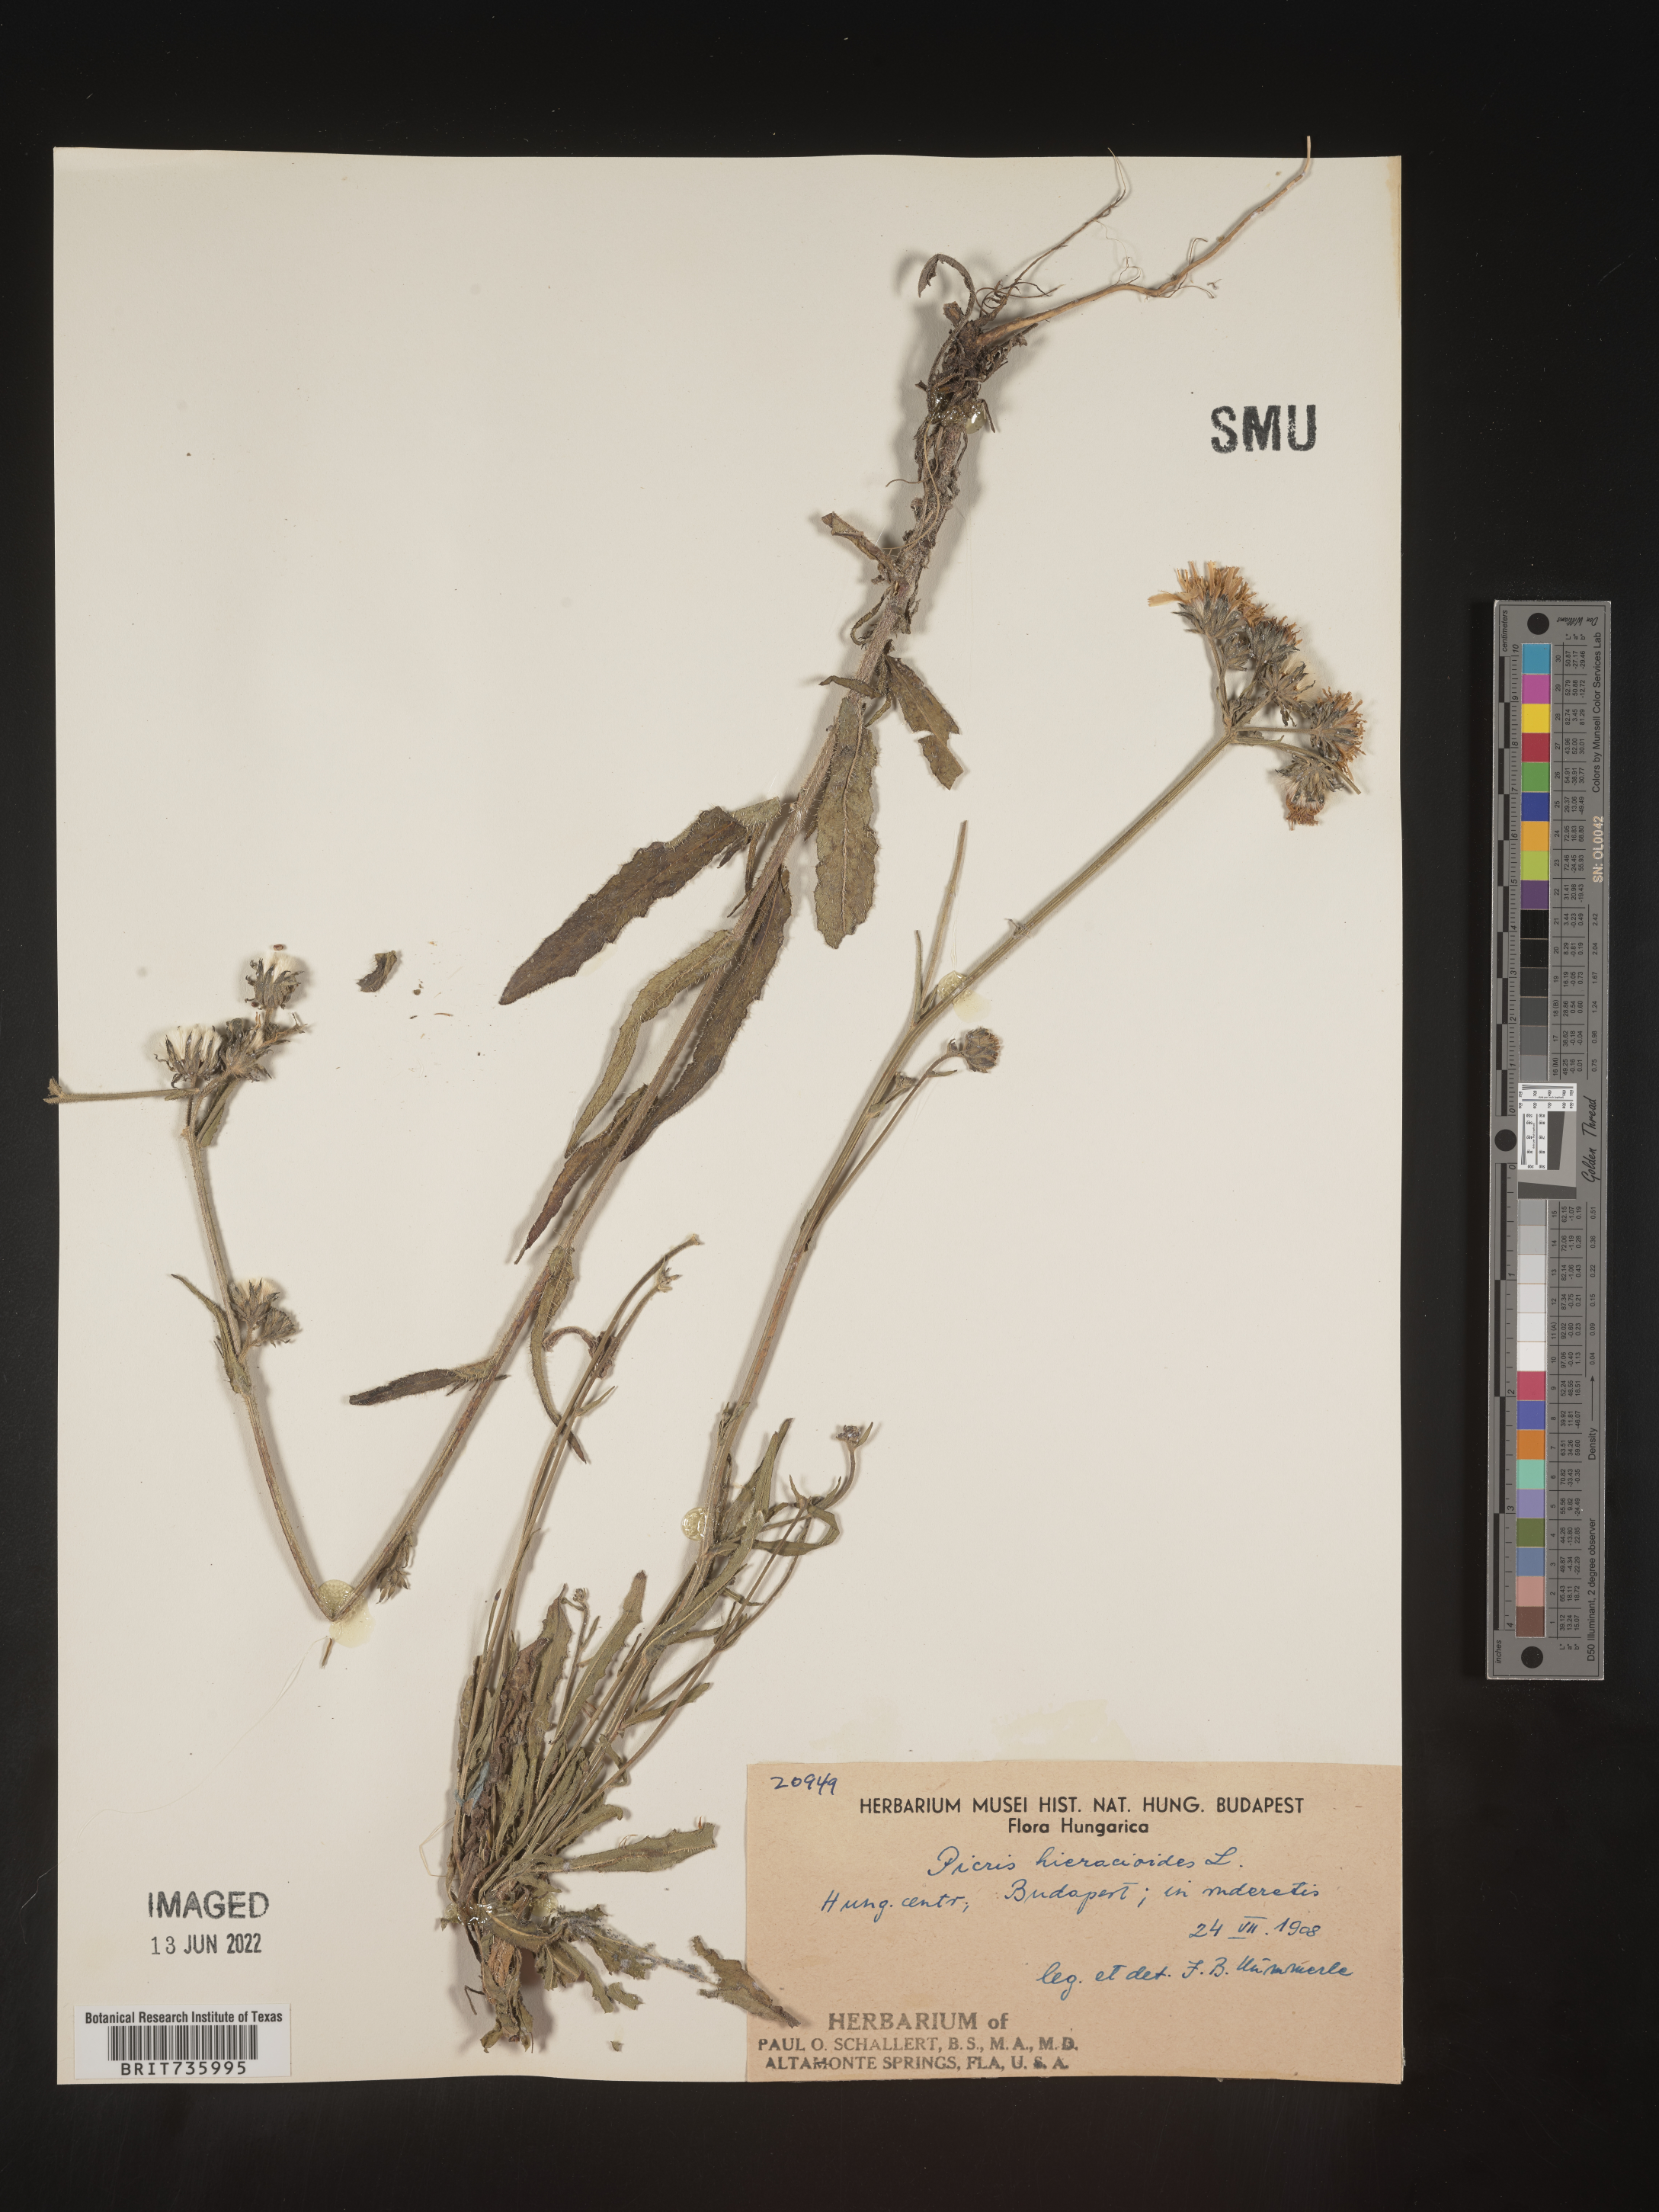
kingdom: Plantae
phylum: Tracheophyta
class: Magnoliopsida
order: Asterales
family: Asteraceae
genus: Picris
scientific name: Picris
